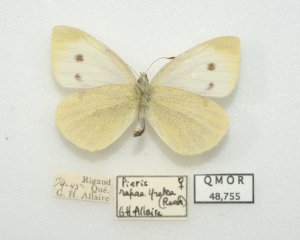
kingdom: Animalia
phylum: Arthropoda
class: Insecta
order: Lepidoptera
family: Pieridae
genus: Pieris
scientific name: Pieris rapae
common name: Cabbage White
